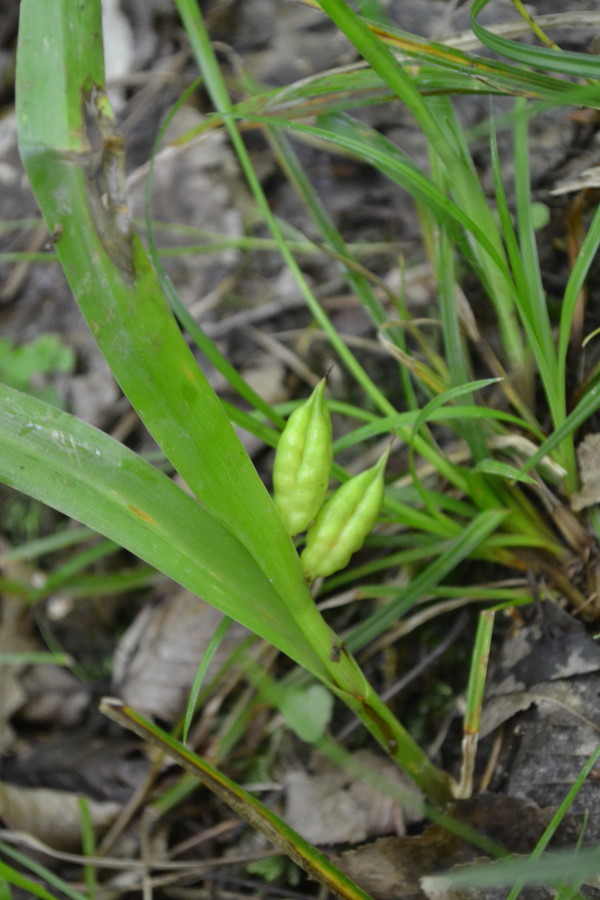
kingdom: Plantae
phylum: Tracheophyta
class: Liliopsida
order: Liliales
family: Colchicaceae
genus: Colchicum
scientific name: Colchicum
